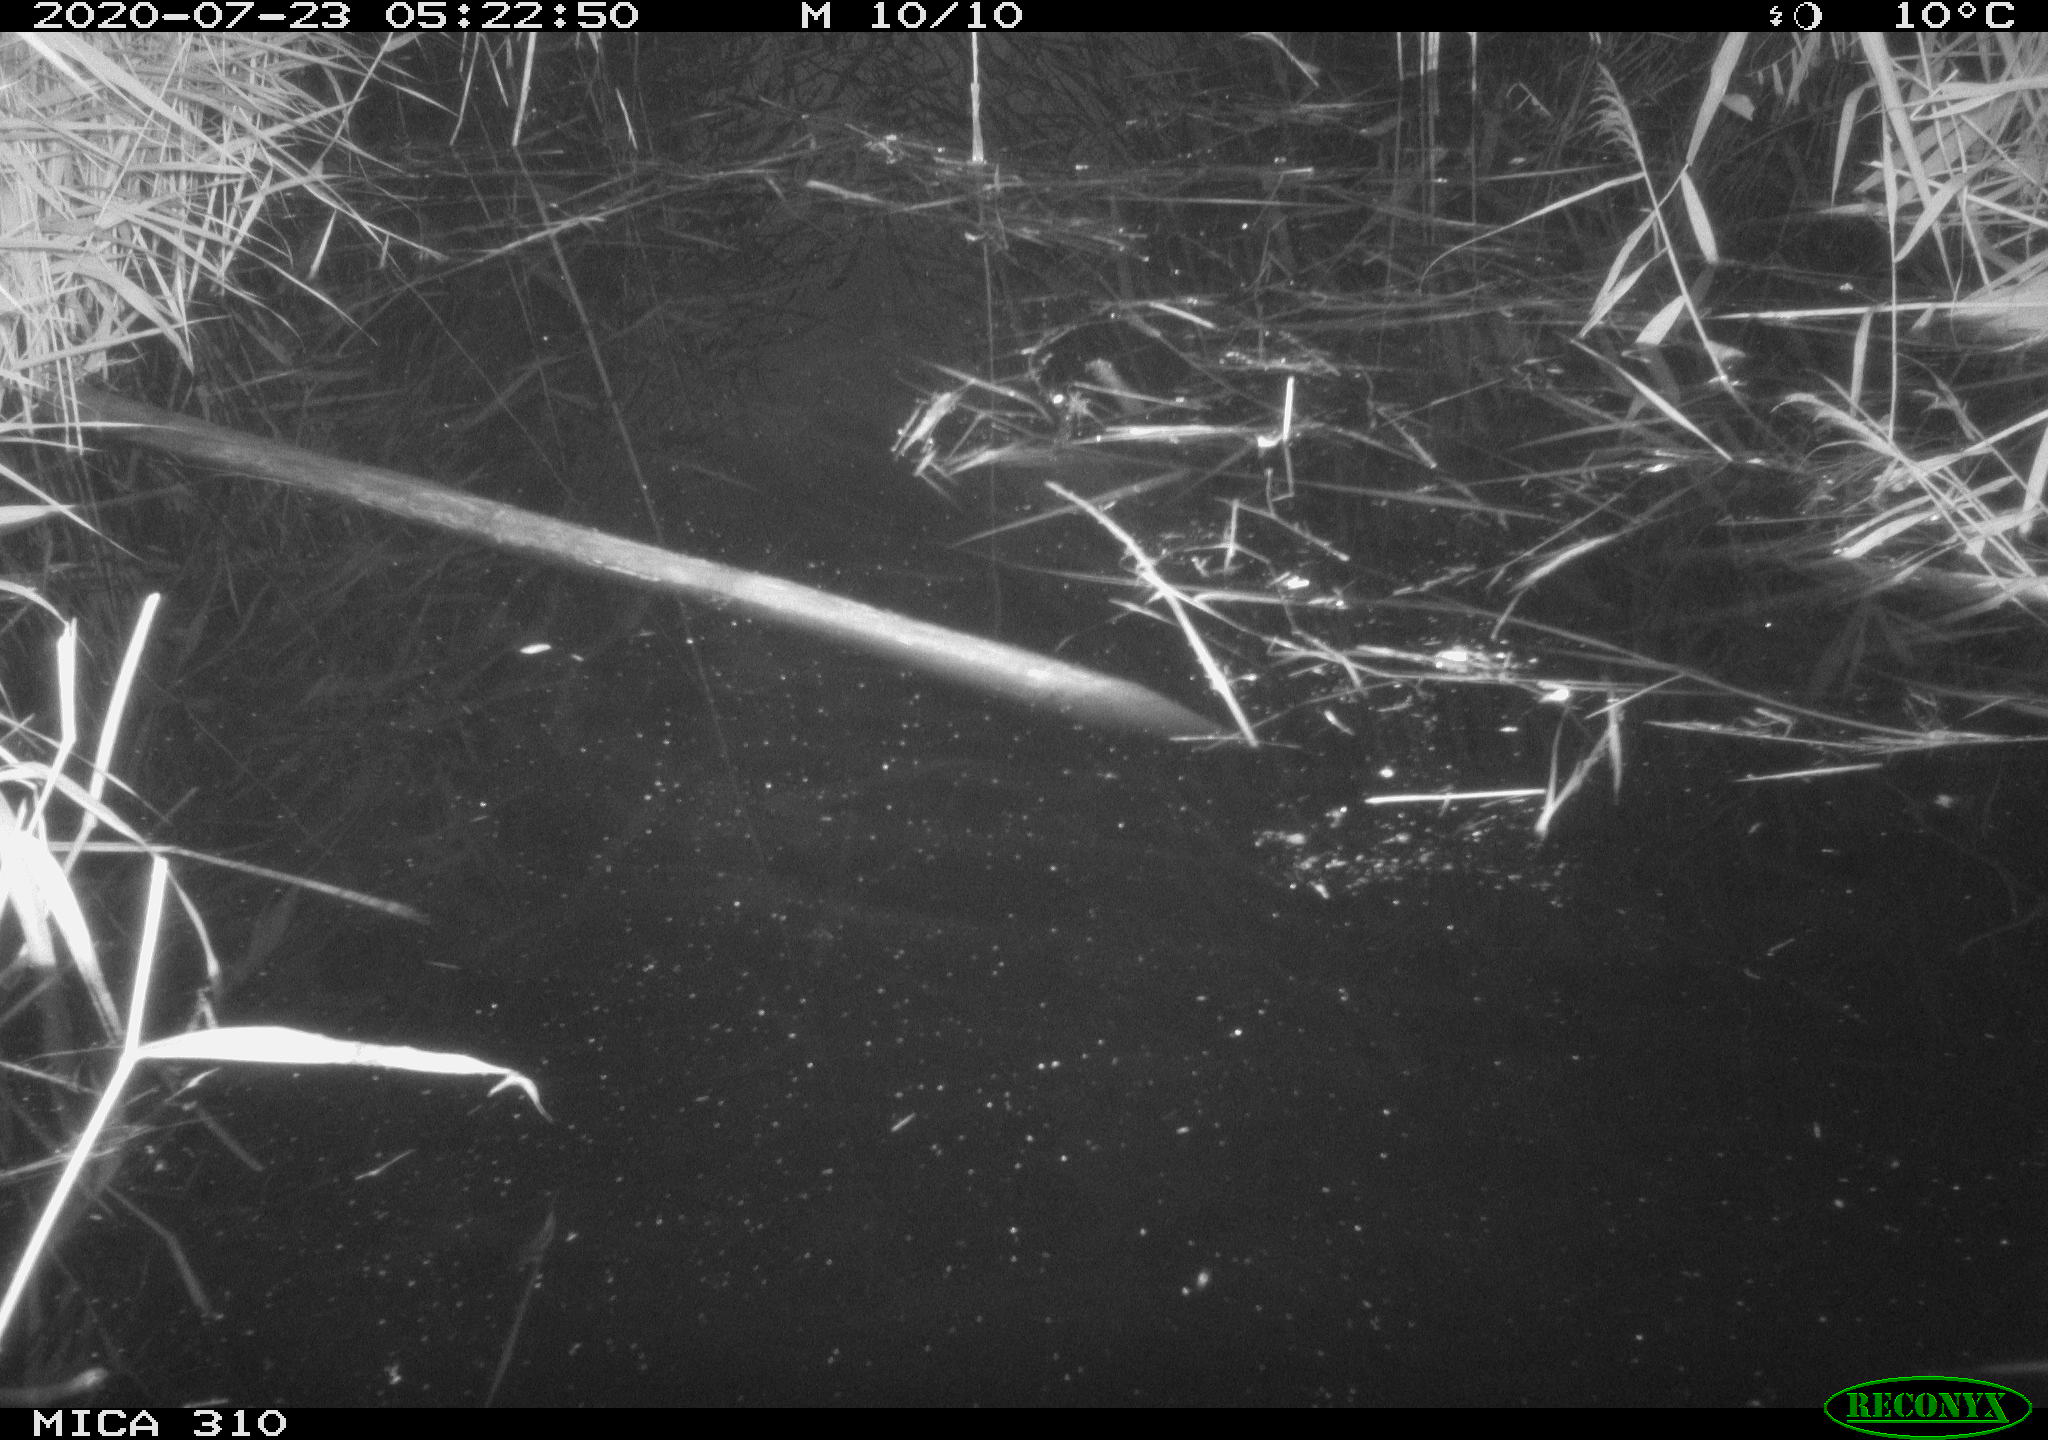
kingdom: Animalia
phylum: Chordata
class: Aves
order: Gruiformes
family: Rallidae
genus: Gallinula
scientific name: Gallinula chloropus
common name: Common moorhen
